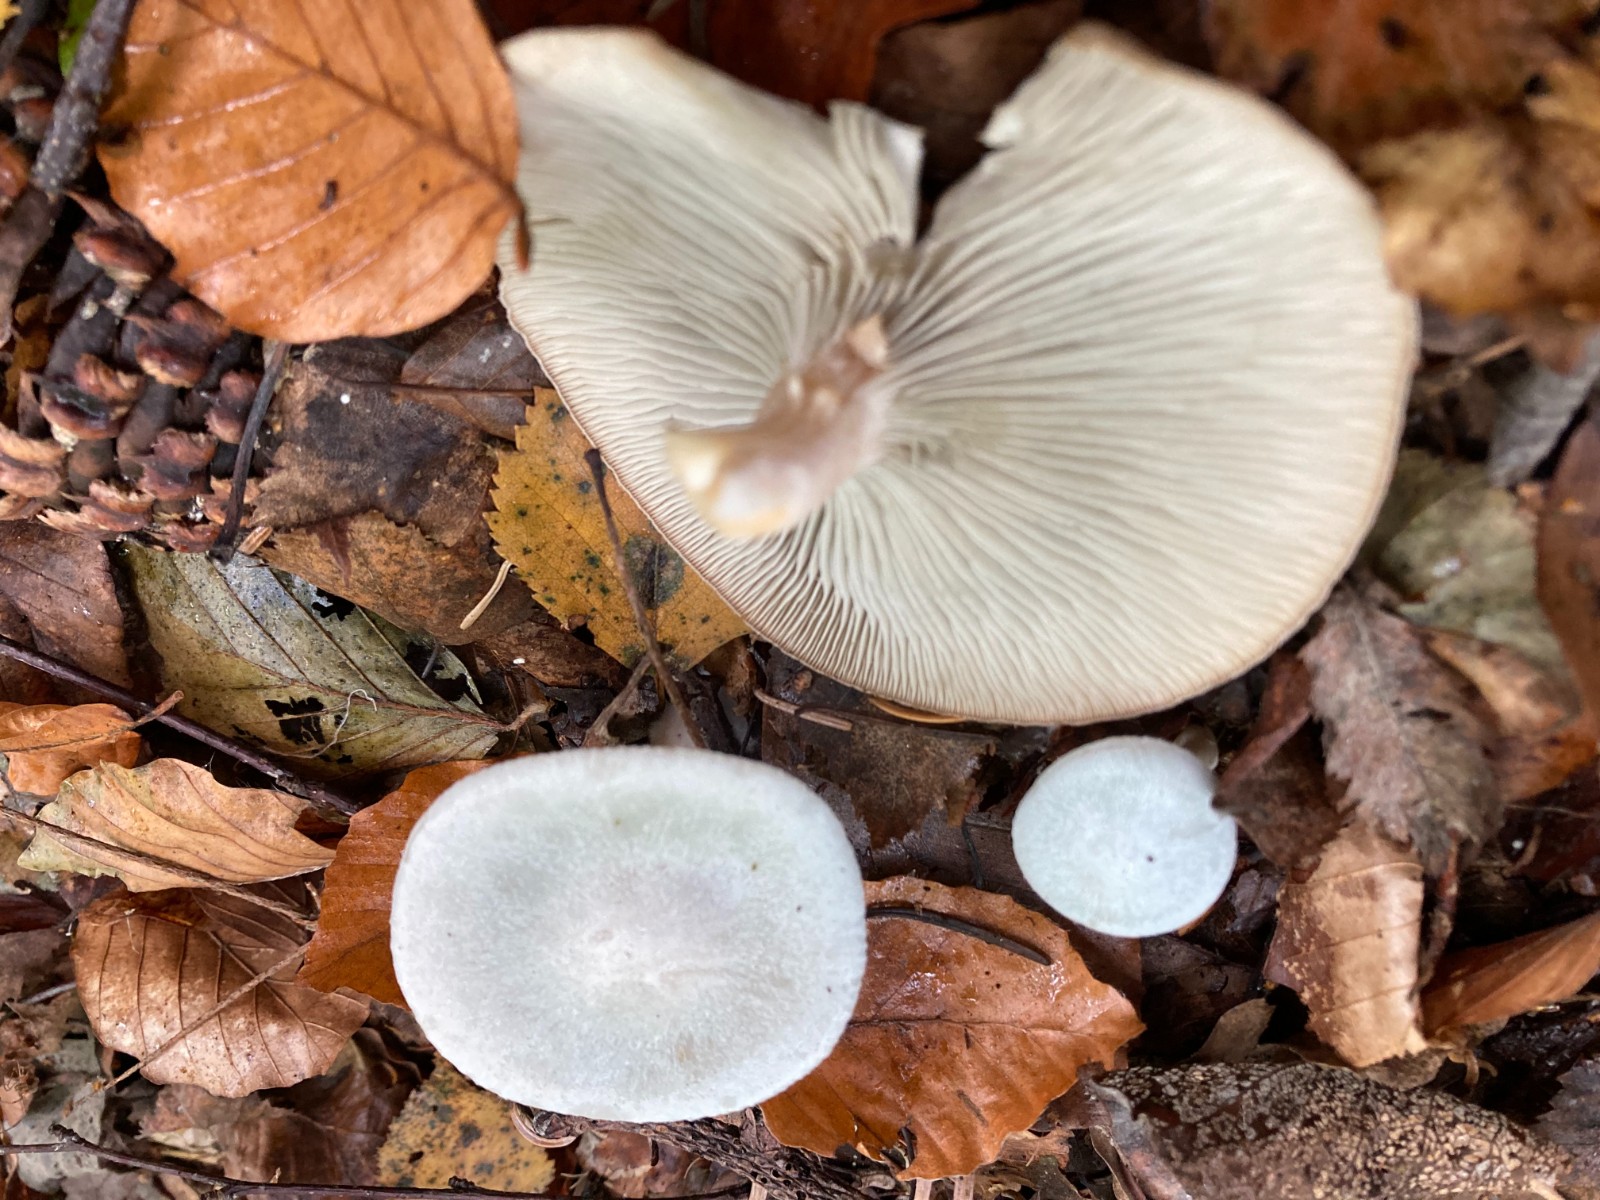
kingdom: Fungi
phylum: Basidiomycota
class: Agaricomycetes
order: Agaricales
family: Tricholomataceae
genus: Clitocybe
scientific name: Clitocybe odora
